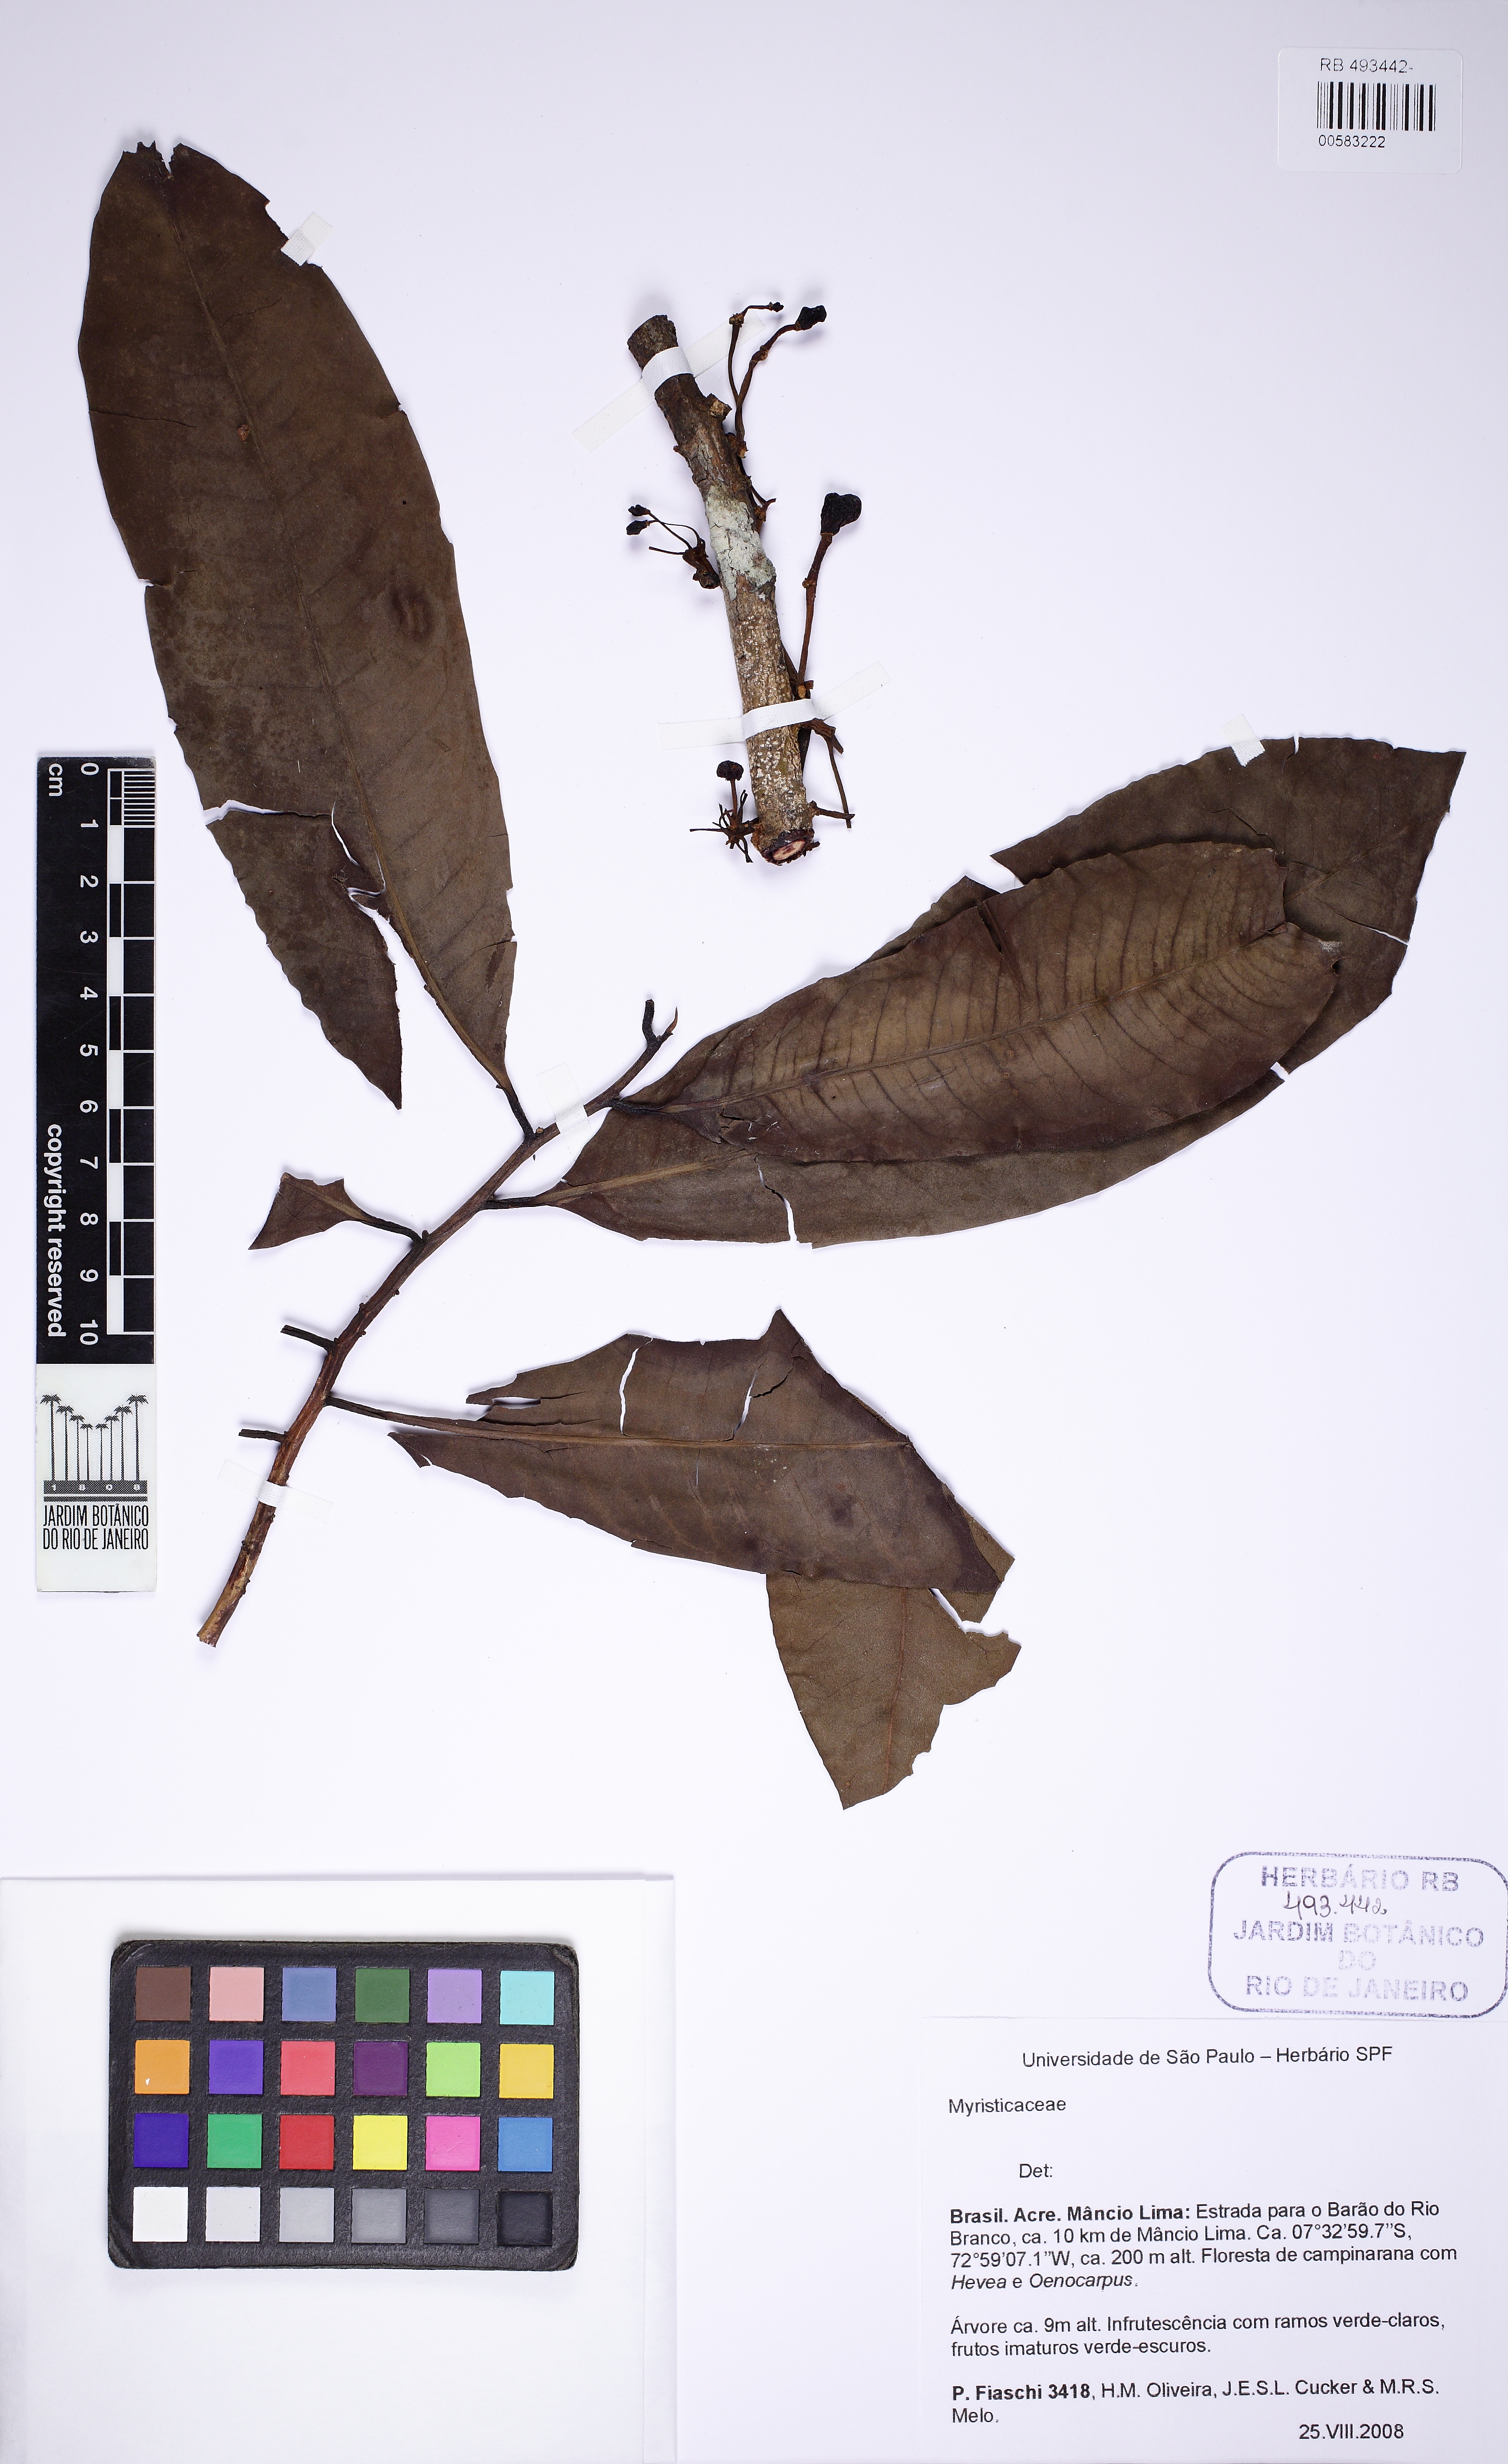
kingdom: Plantae
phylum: Tracheophyta
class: Magnoliopsida
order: Magnoliales
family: Myristicaceae
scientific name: Myristicaceae
